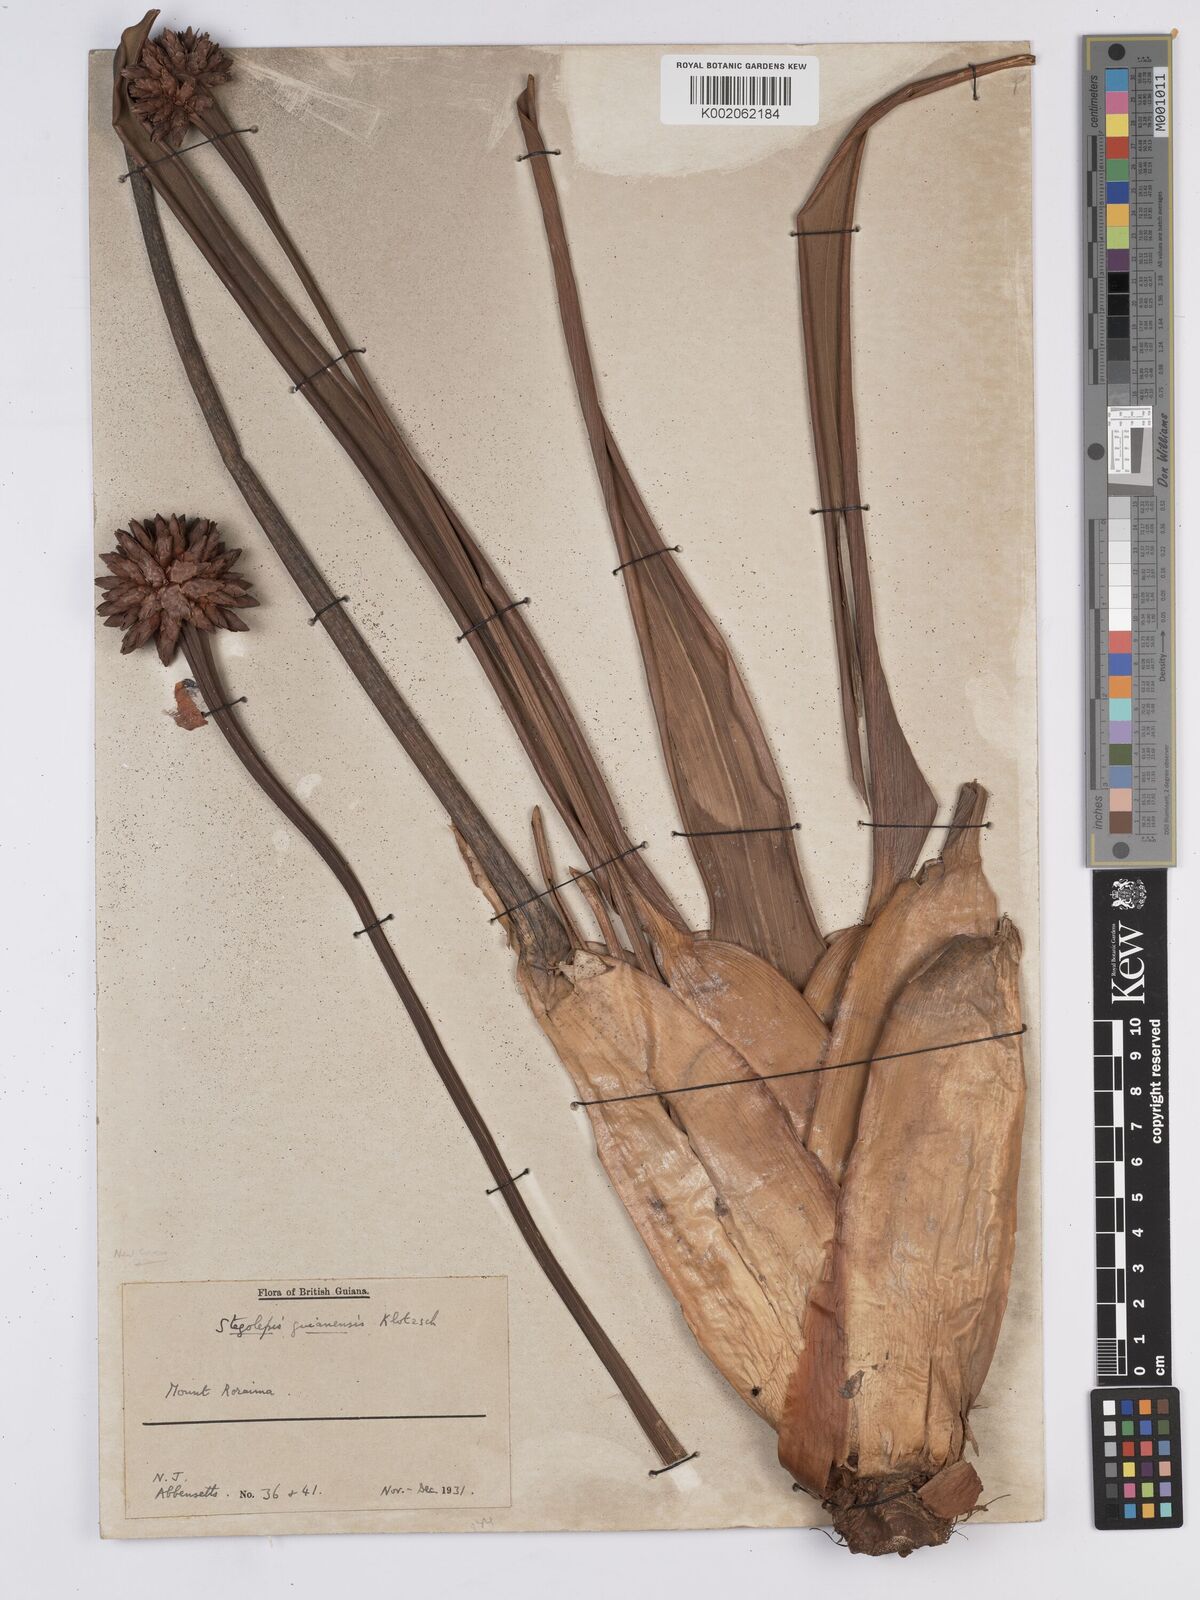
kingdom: Plantae
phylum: Tracheophyta
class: Liliopsida
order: Poales
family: Rapateaceae
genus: Stegolepis
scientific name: Stegolepis guianensis
